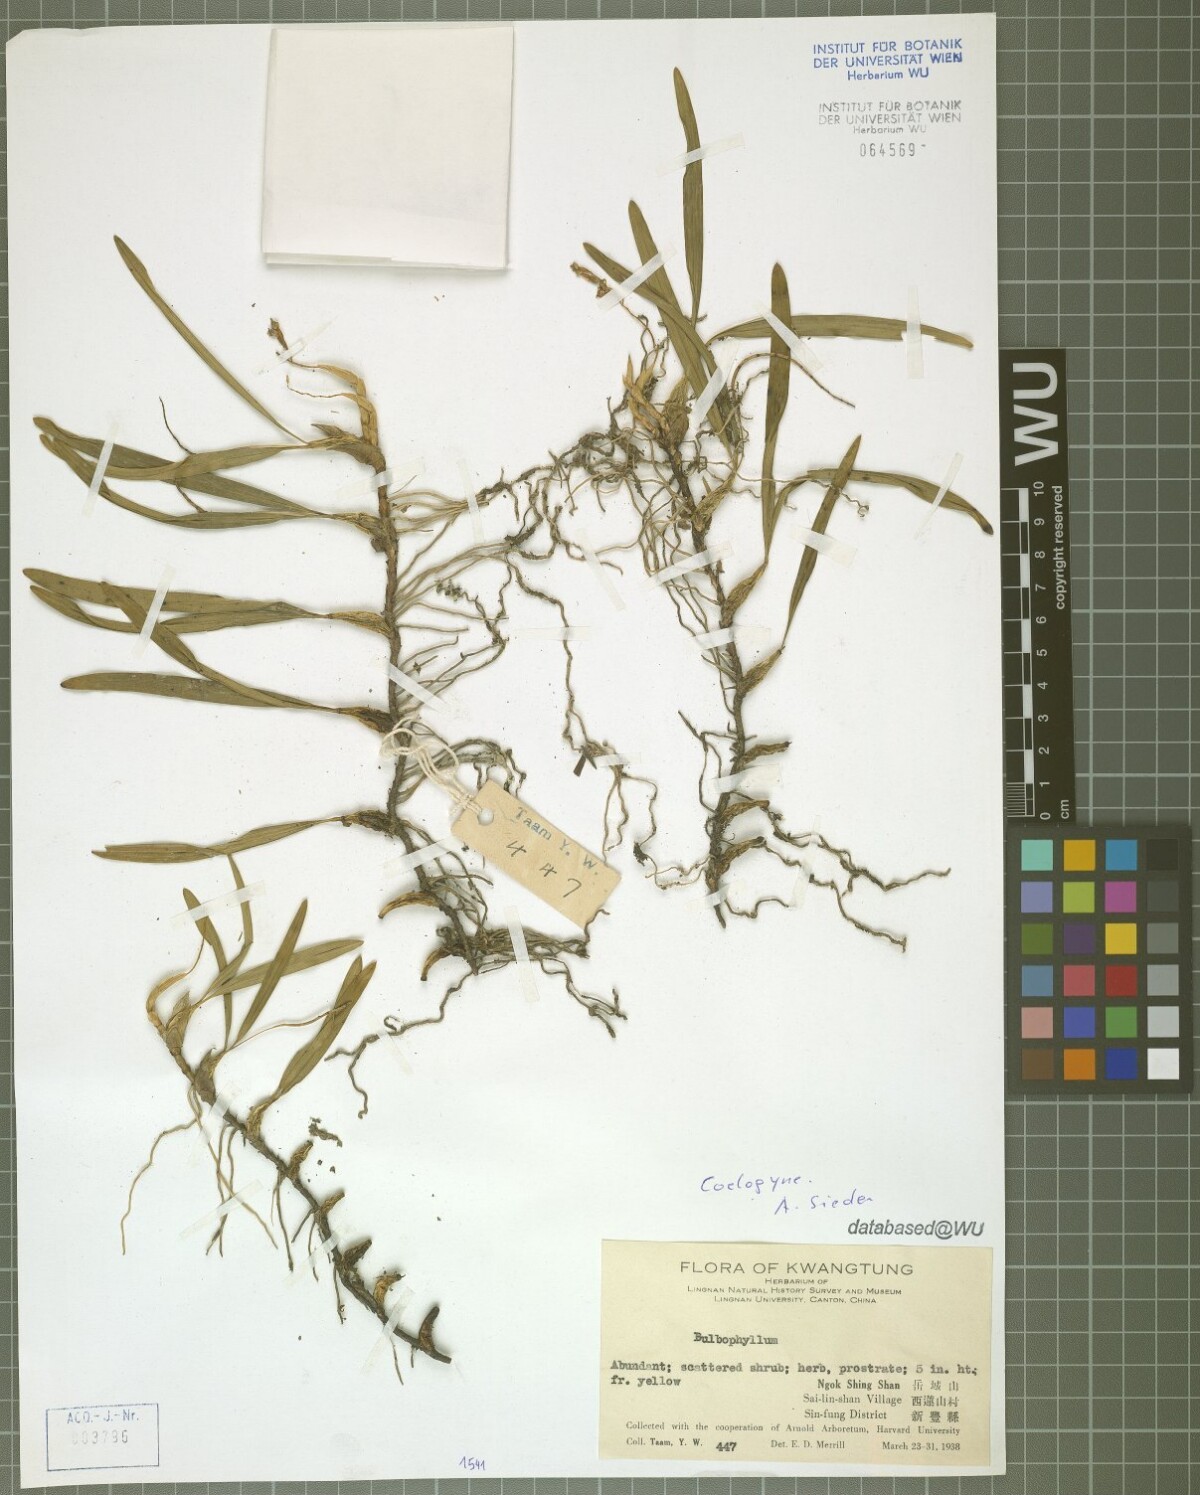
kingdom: Plantae
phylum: Tracheophyta
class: Liliopsida
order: Asparagales
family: Orchidaceae
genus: Coelogyne
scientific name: Coelogyne
